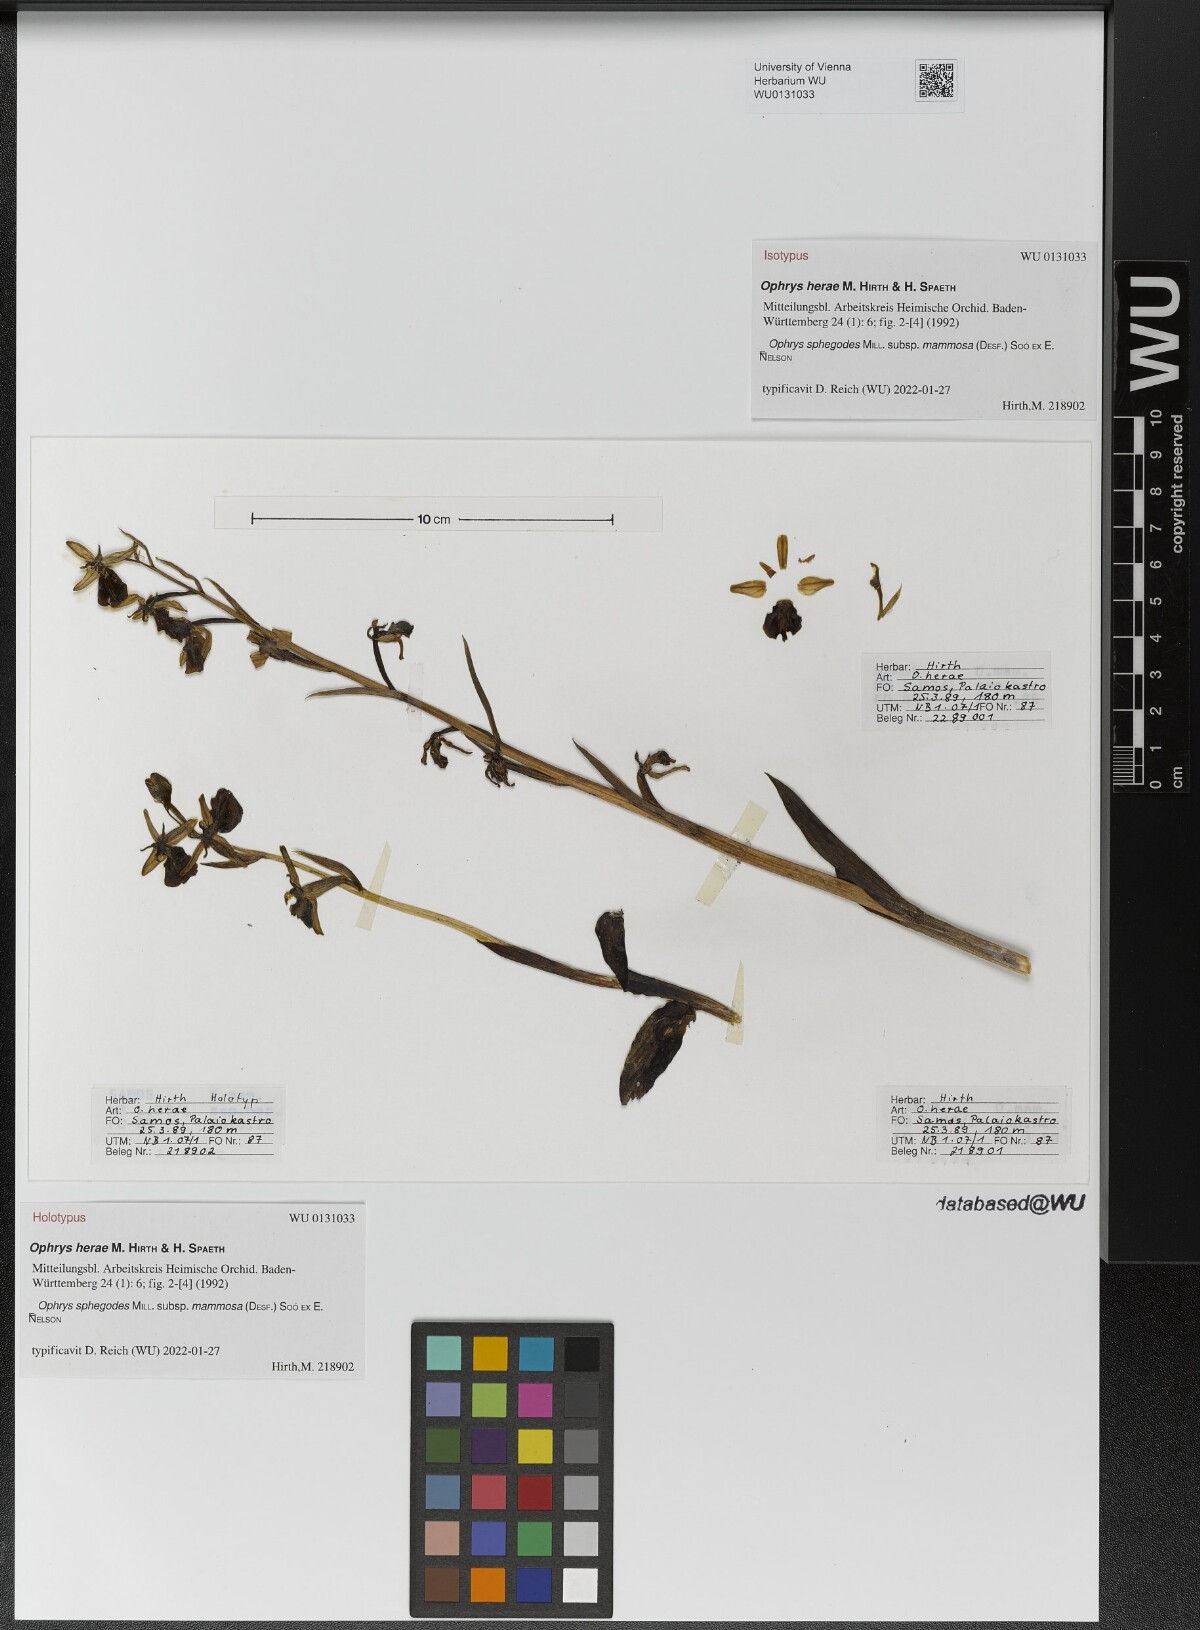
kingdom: Plantae
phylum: Tracheophyta
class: Liliopsida
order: Asparagales
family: Orchidaceae
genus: Ophrys
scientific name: Ophrys sphegodes
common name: Early spider-orchid
